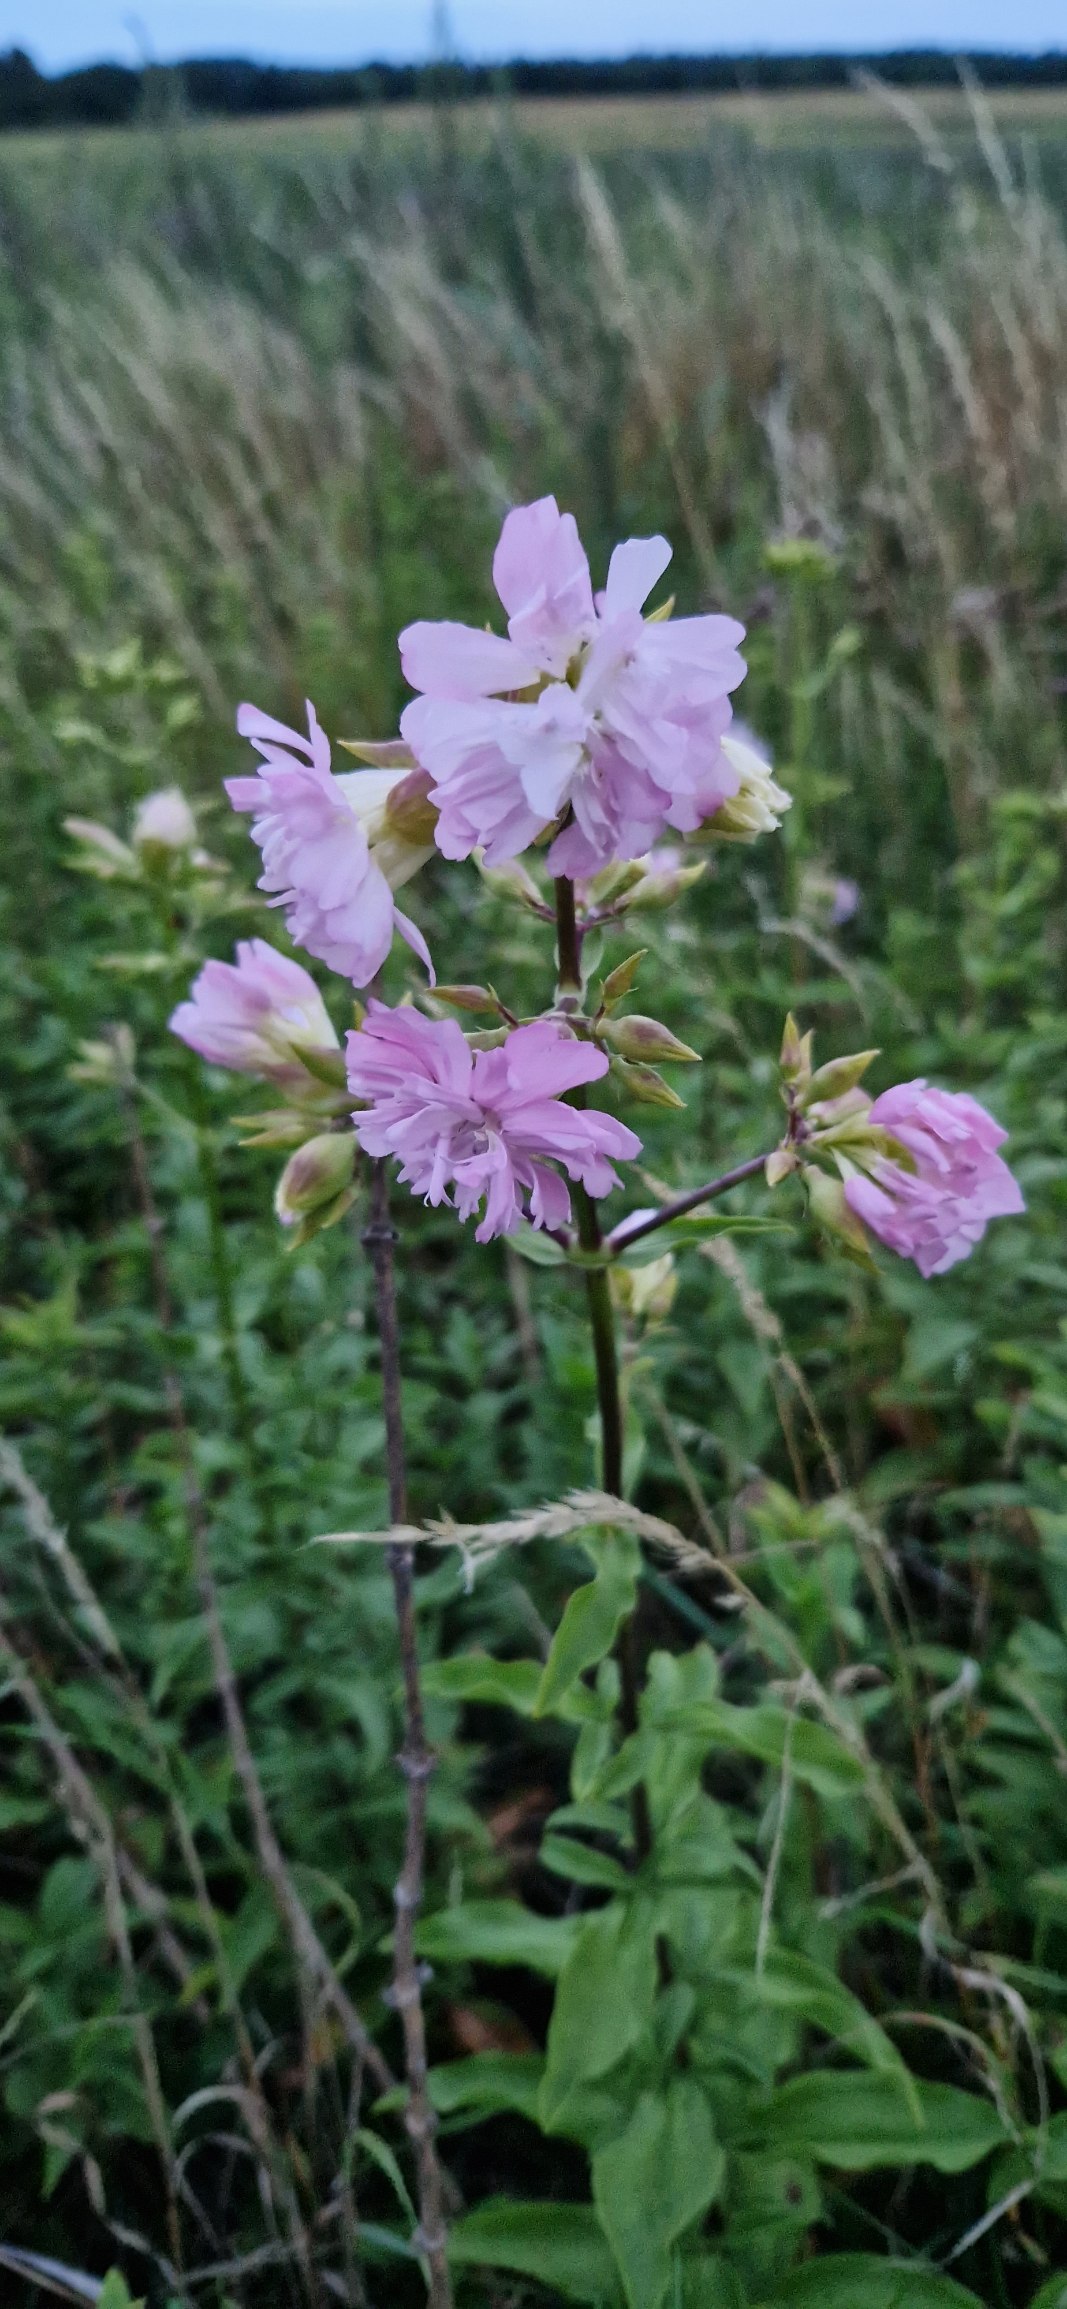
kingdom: Plantae
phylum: Tracheophyta
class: Magnoliopsida
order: Caryophyllales
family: Caryophyllaceae
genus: Saponaria
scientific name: Saponaria officinalis
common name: Sæbeurt
